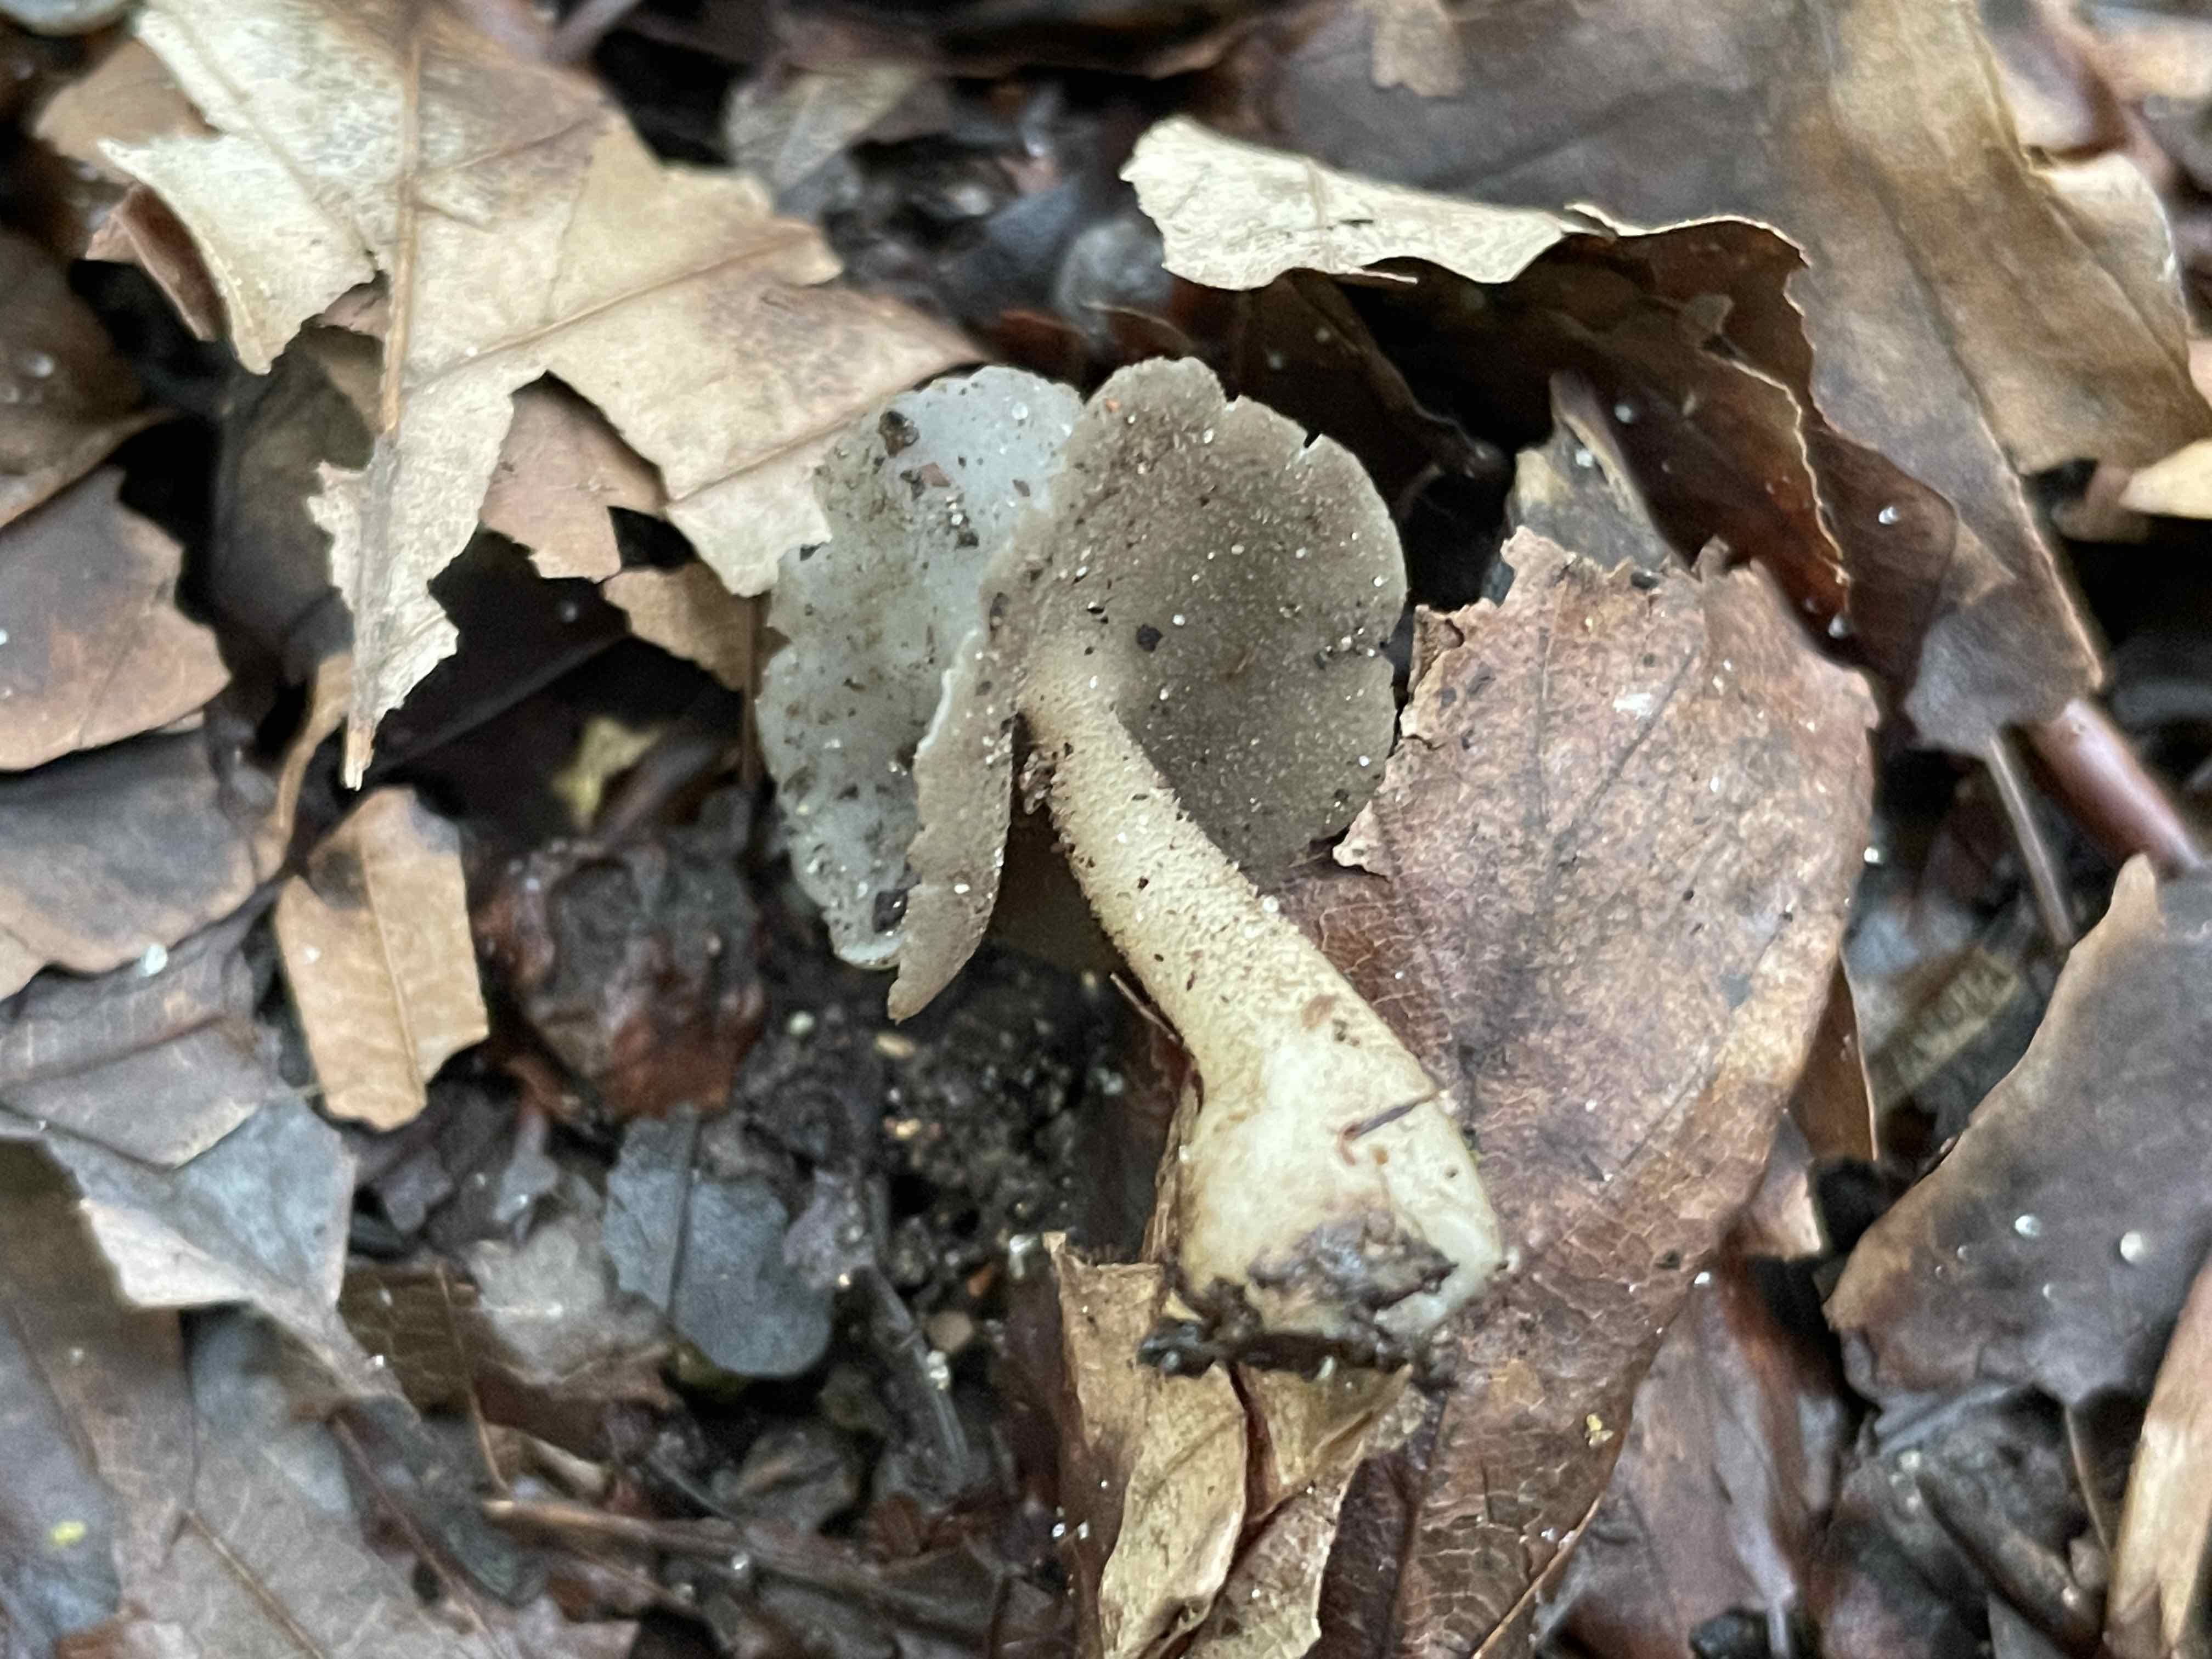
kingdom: Fungi
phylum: Ascomycota
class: Pezizomycetes
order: Pezizales
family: Helvellaceae
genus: Helvella
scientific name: Helvella
